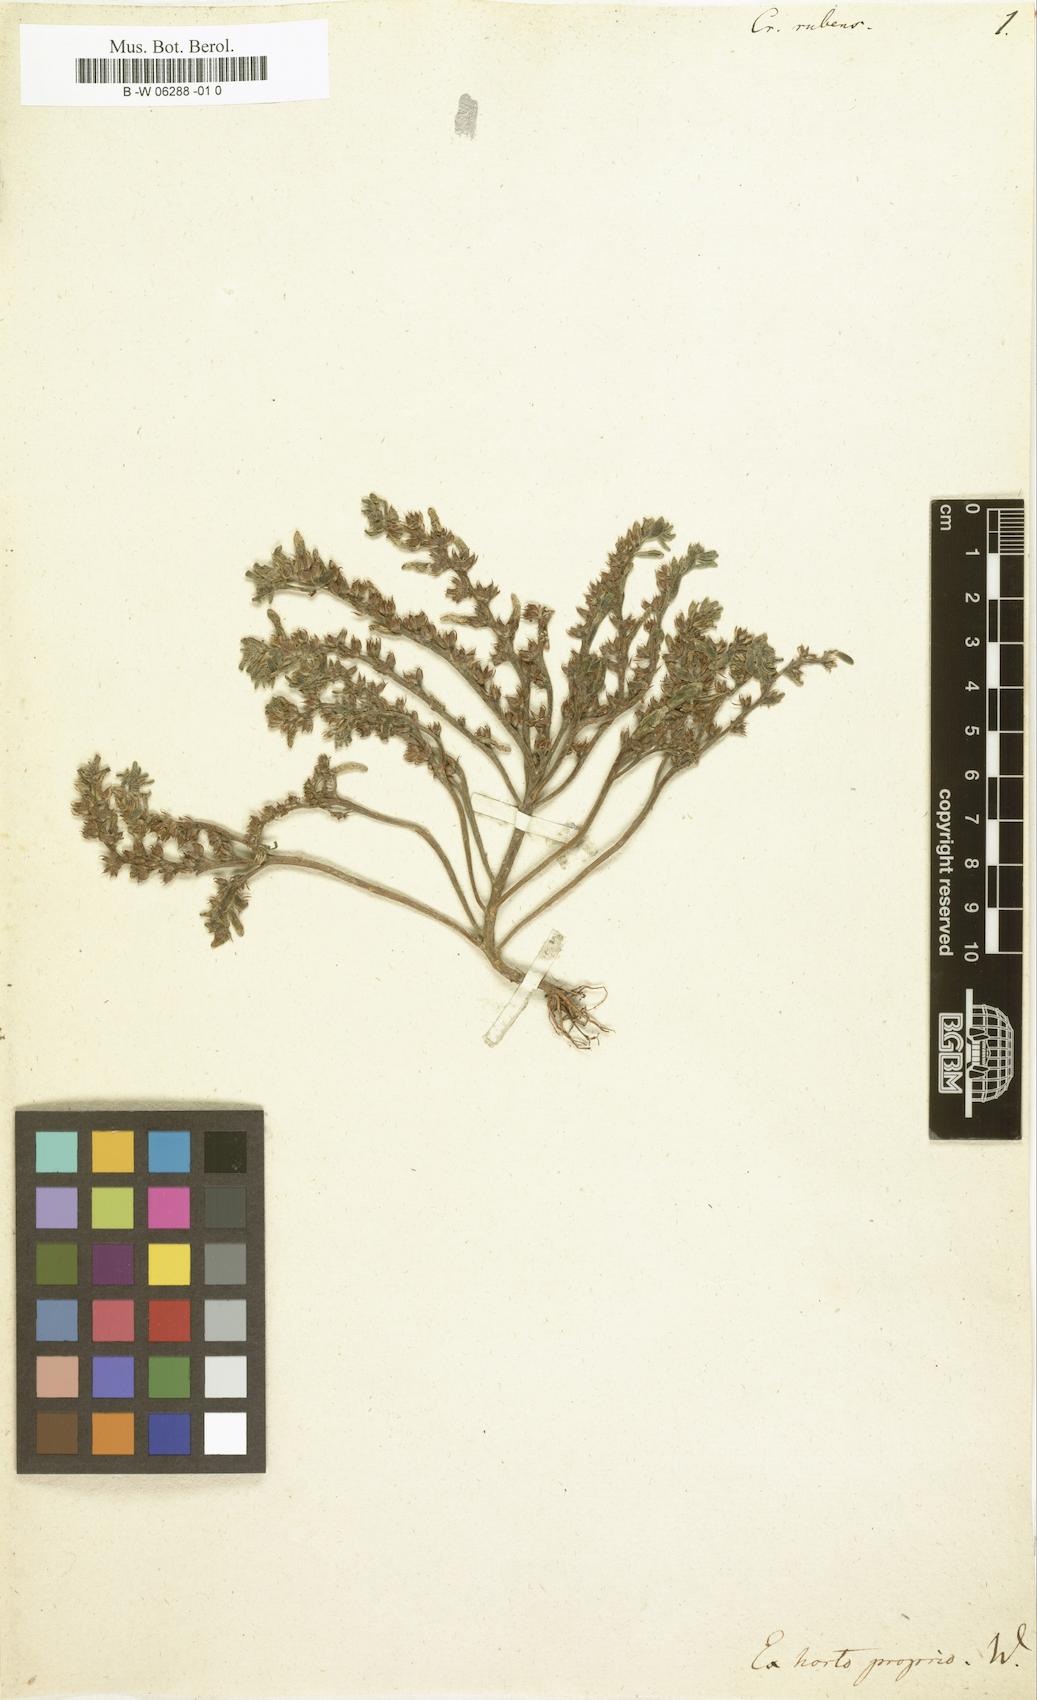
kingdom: Plantae
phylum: Tracheophyta
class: Magnoliopsida
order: Saxifragales
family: Crassulaceae
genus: Sedum
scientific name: Sedum rubens
